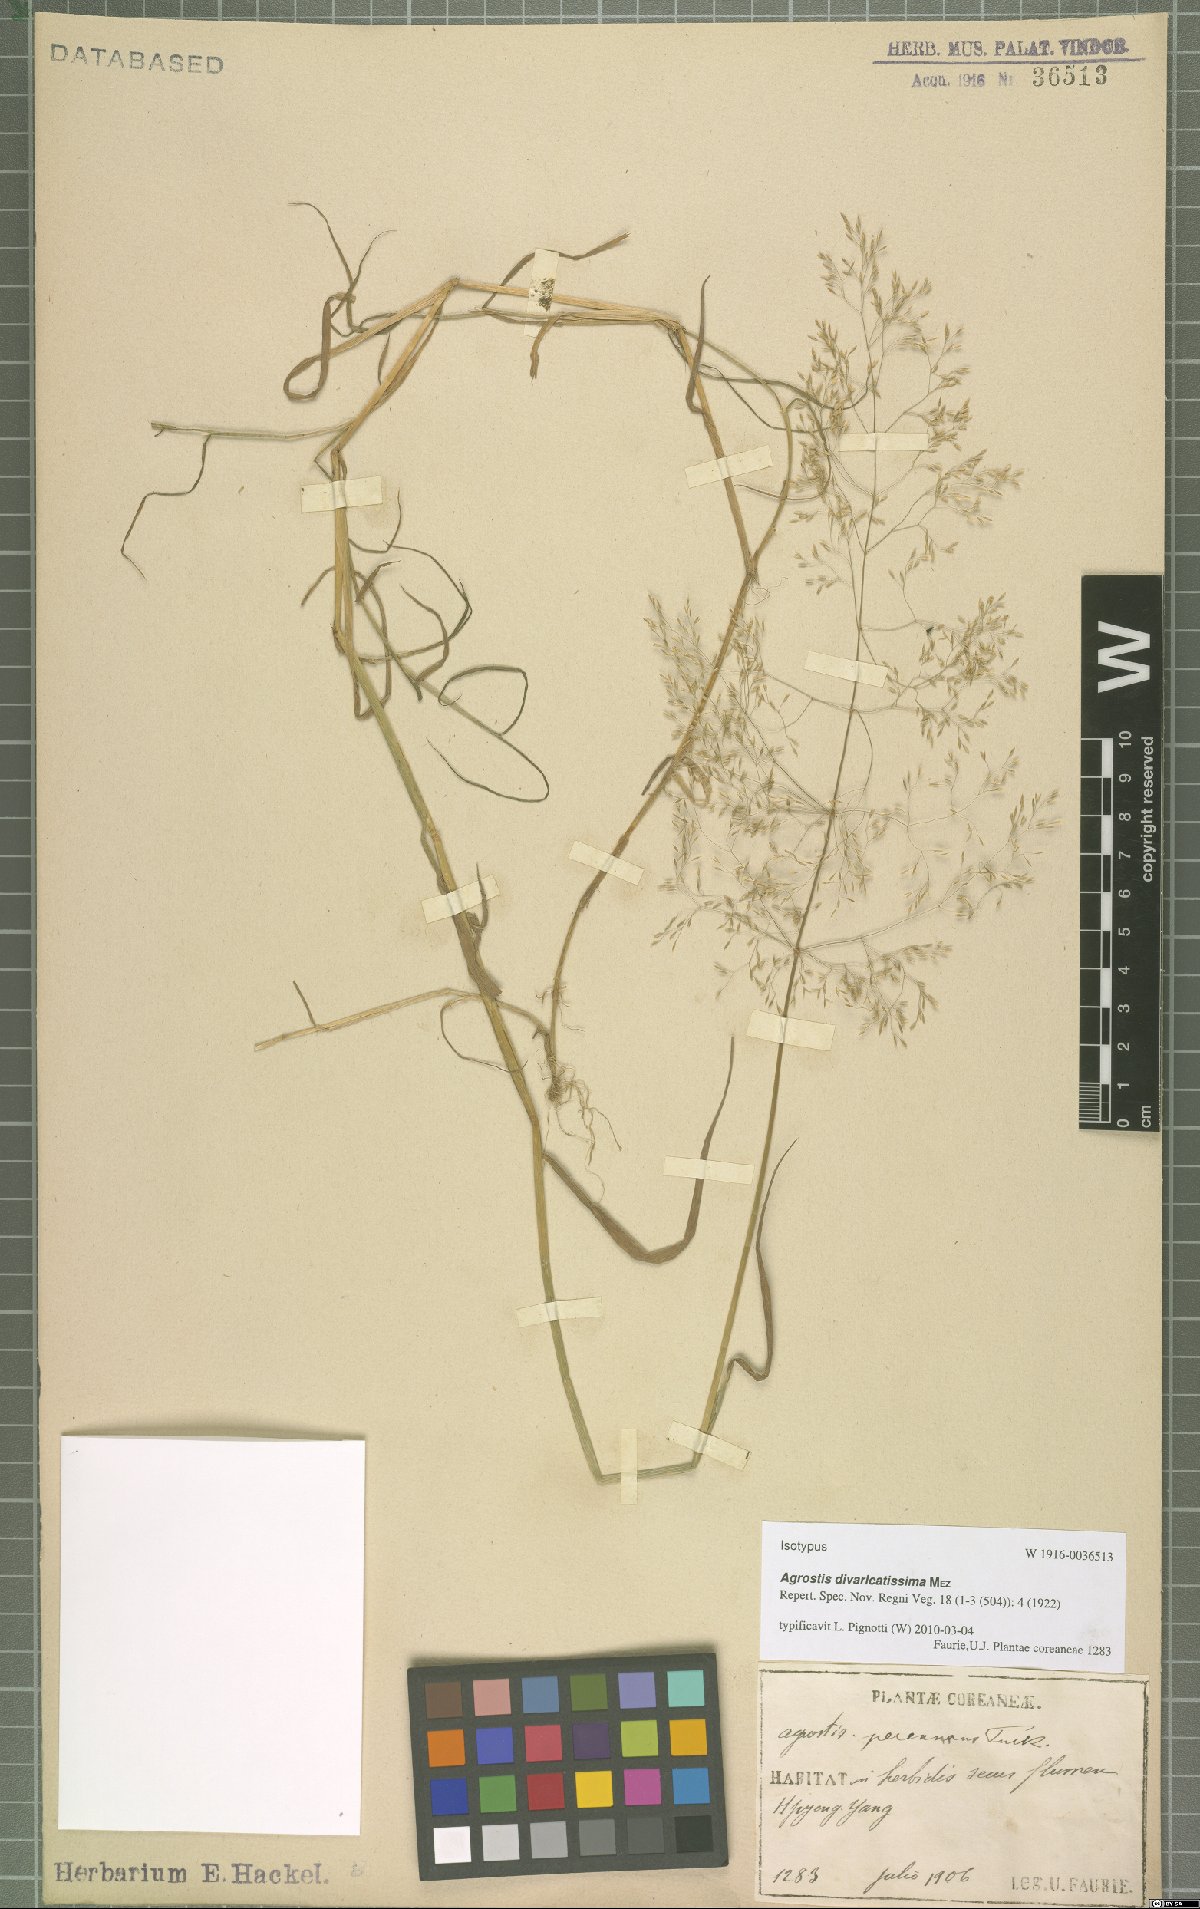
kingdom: Plantae
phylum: Tracheophyta
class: Liliopsida
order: Poales
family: Poaceae
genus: Agrostis
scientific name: Agrostis divaricatissima
